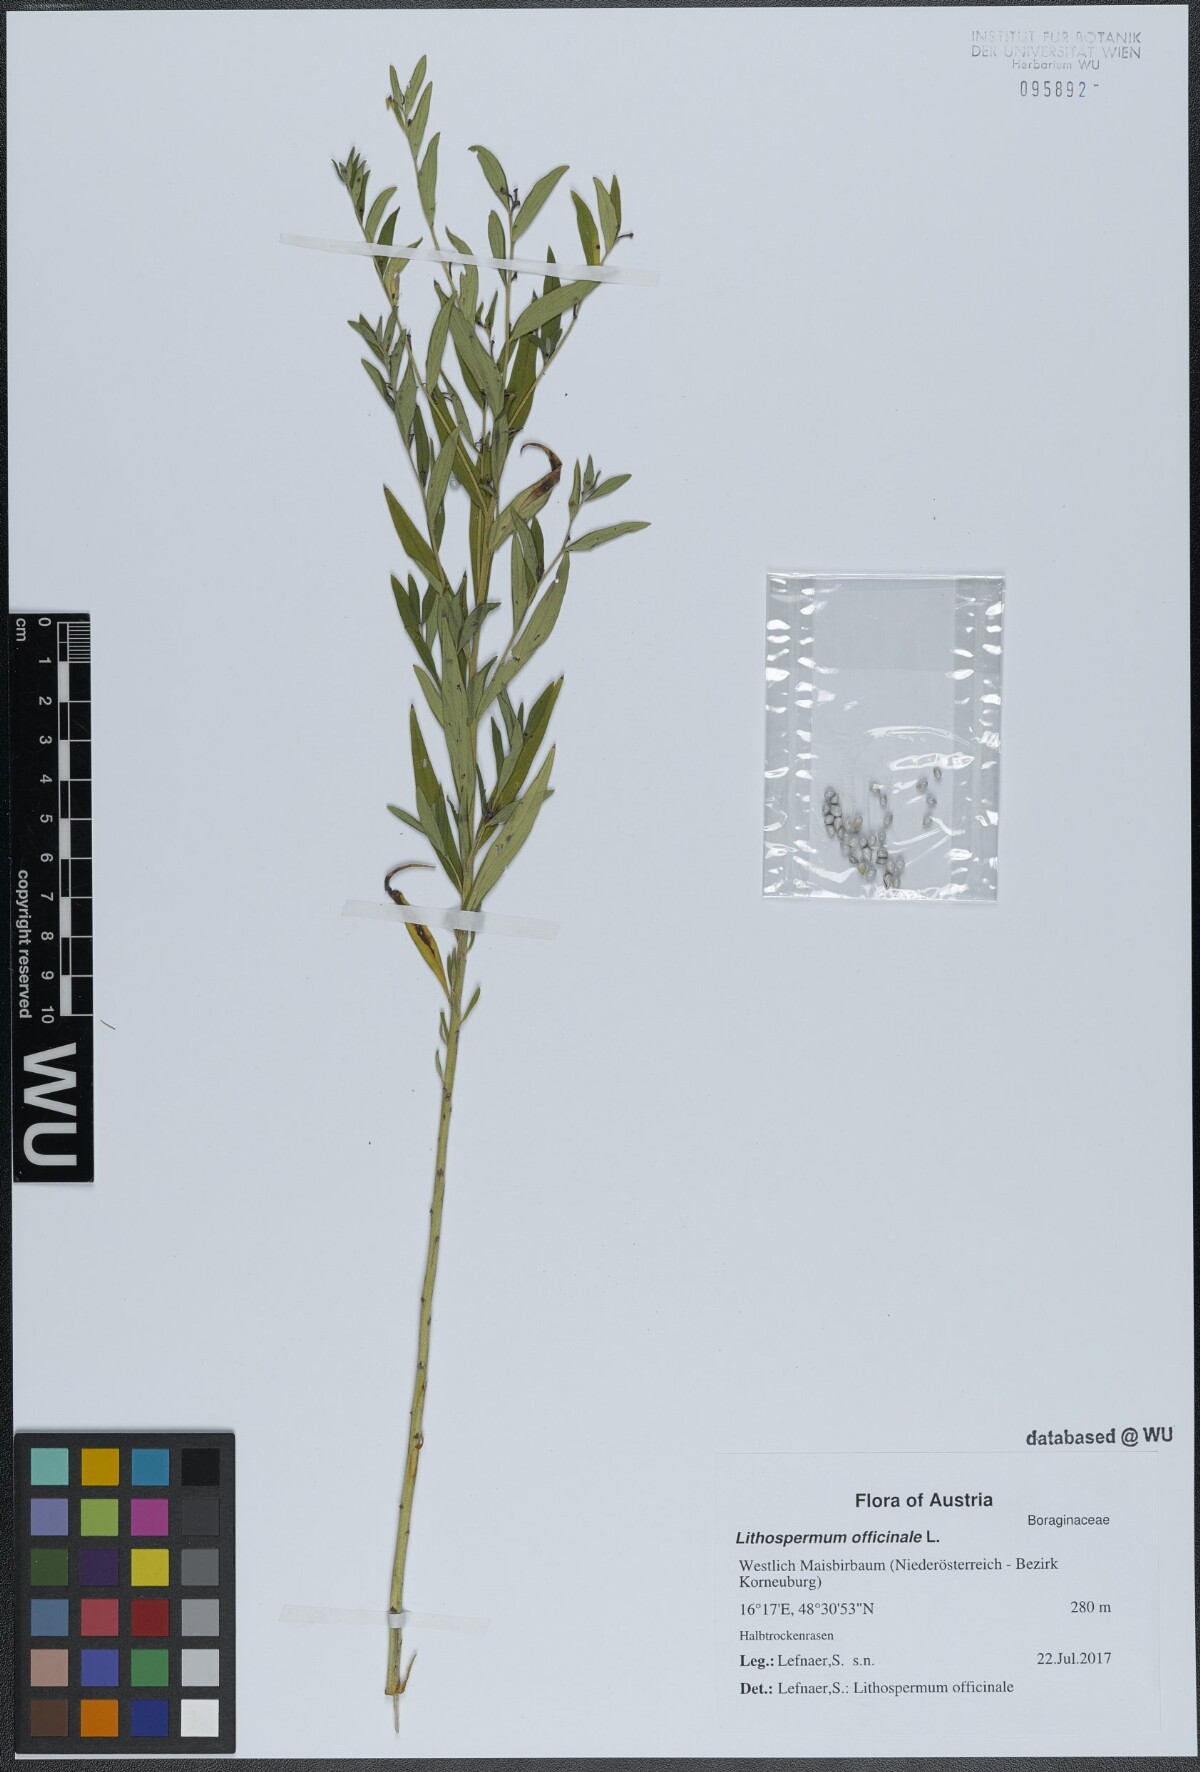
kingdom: Plantae
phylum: Tracheophyta
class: Magnoliopsida
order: Boraginales
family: Boraginaceae
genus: Lithospermum
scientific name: Lithospermum officinale
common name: Common gromwell
